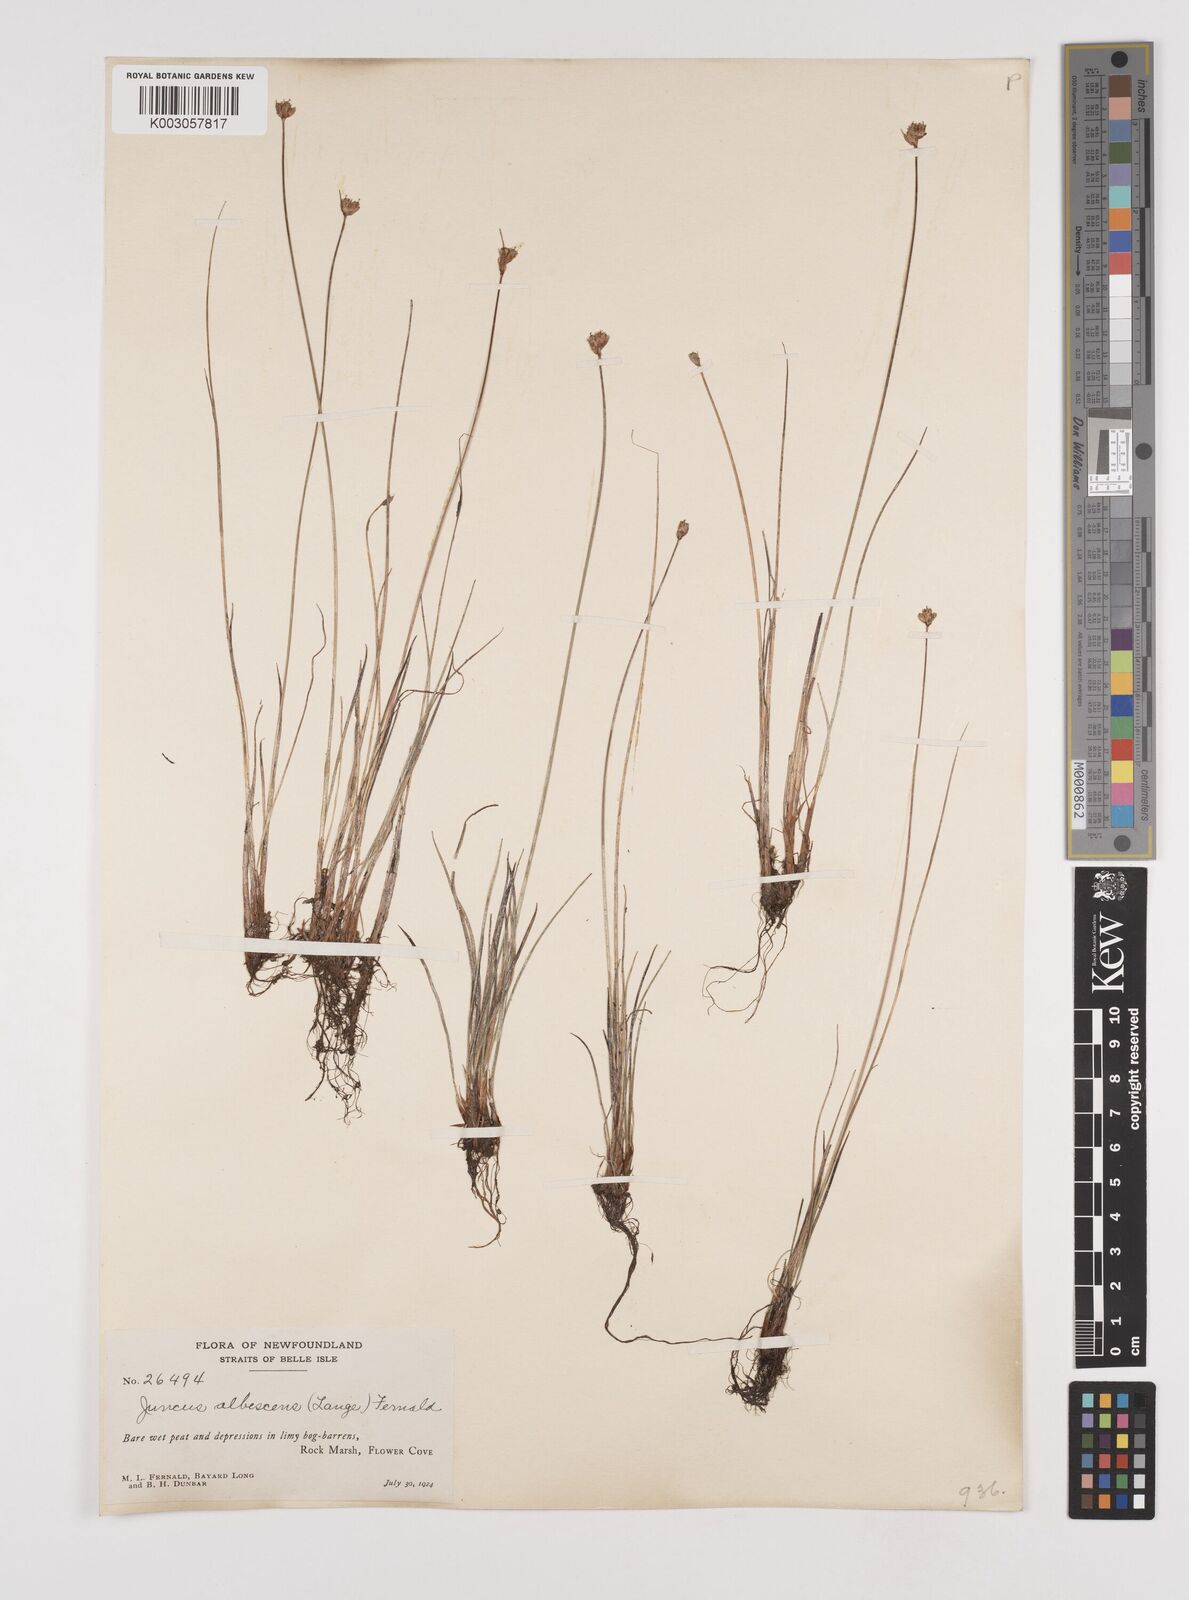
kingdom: Plantae
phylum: Tracheophyta
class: Liliopsida
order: Poales
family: Juncaceae
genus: Juncus
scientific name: Juncus albescens
